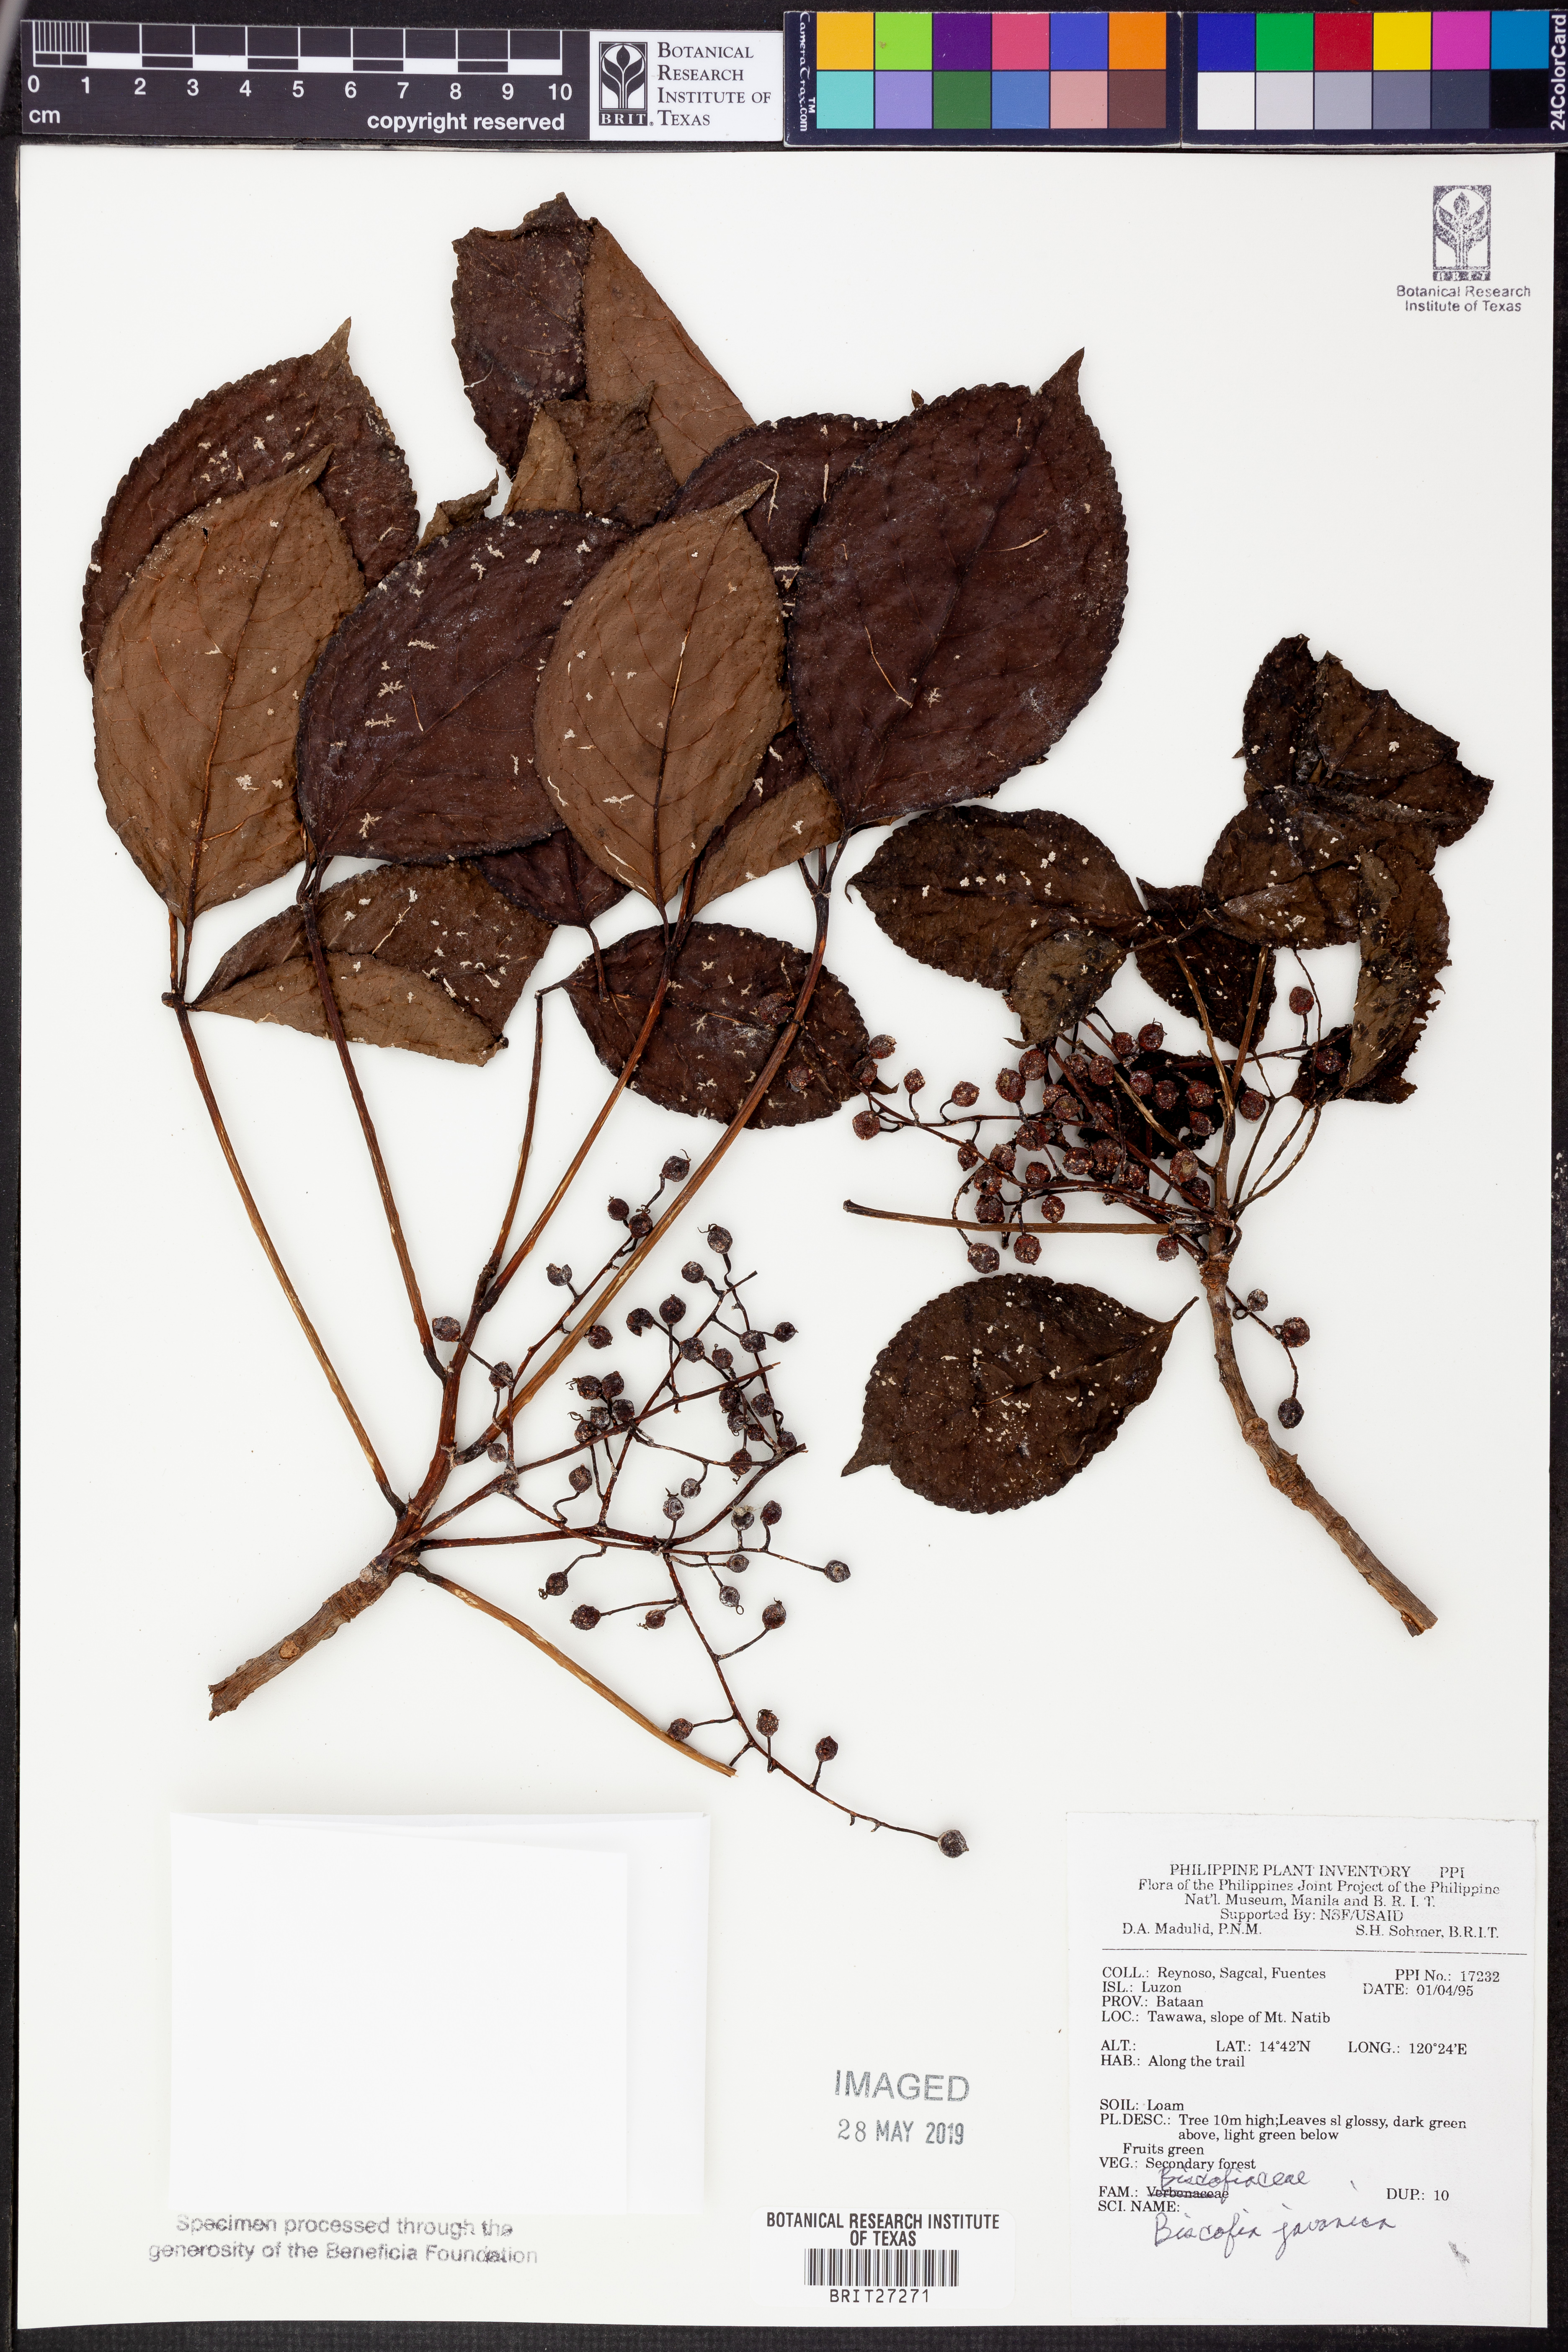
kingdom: Plantae
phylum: Tracheophyta
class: Magnoliopsida
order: Malpighiales
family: Phyllanthaceae
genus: Bischofia
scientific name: Bischofia javanica
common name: Javanese bishopwood
